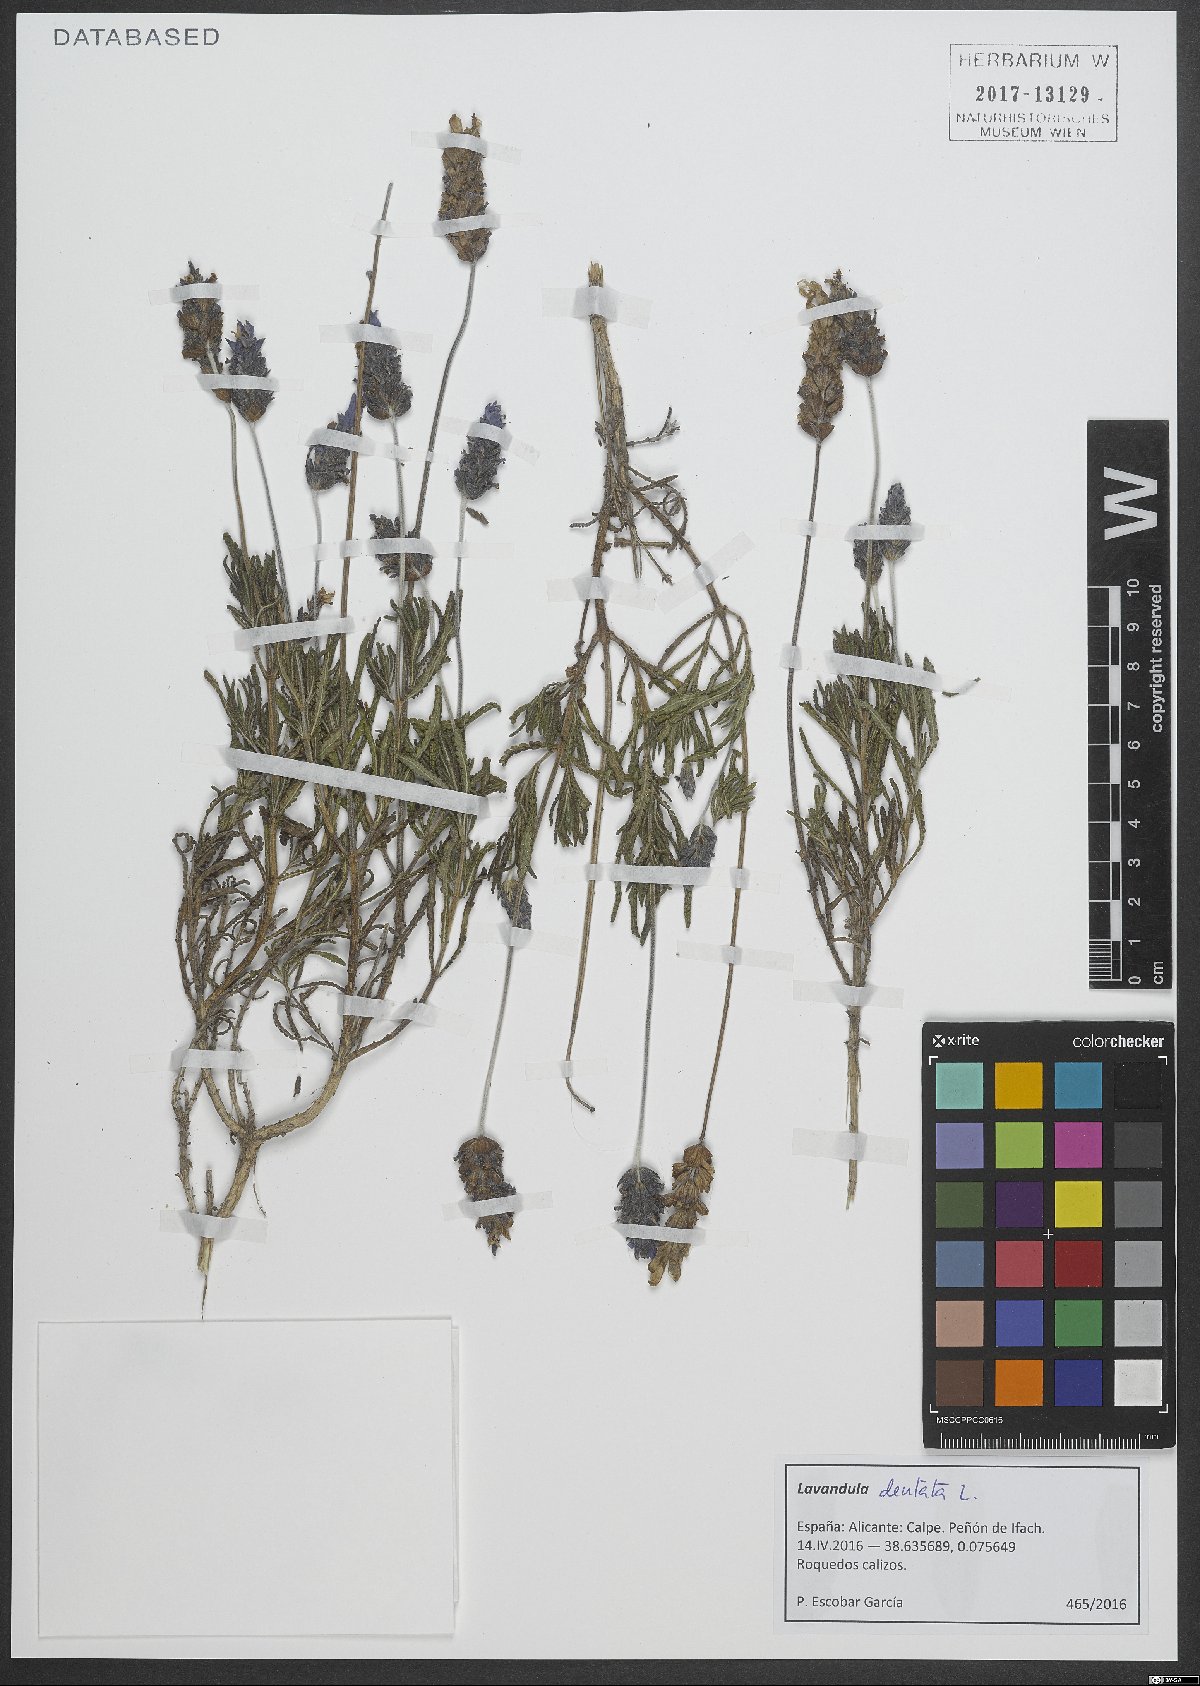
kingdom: Plantae
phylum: Tracheophyta
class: Magnoliopsida
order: Lamiales
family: Lamiaceae
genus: Lavandula
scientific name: Lavandula dentata
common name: French lavender
